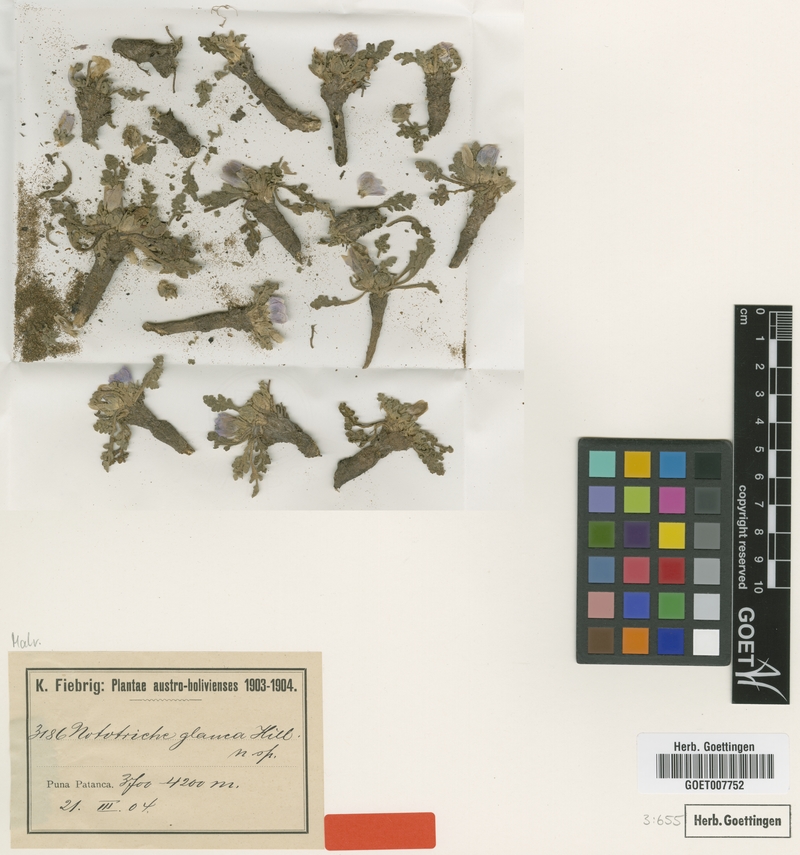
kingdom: Plantae
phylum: Tracheophyta
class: Magnoliopsida
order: Malvales
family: Malvaceae
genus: Nototriche
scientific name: Nototriche glauca
